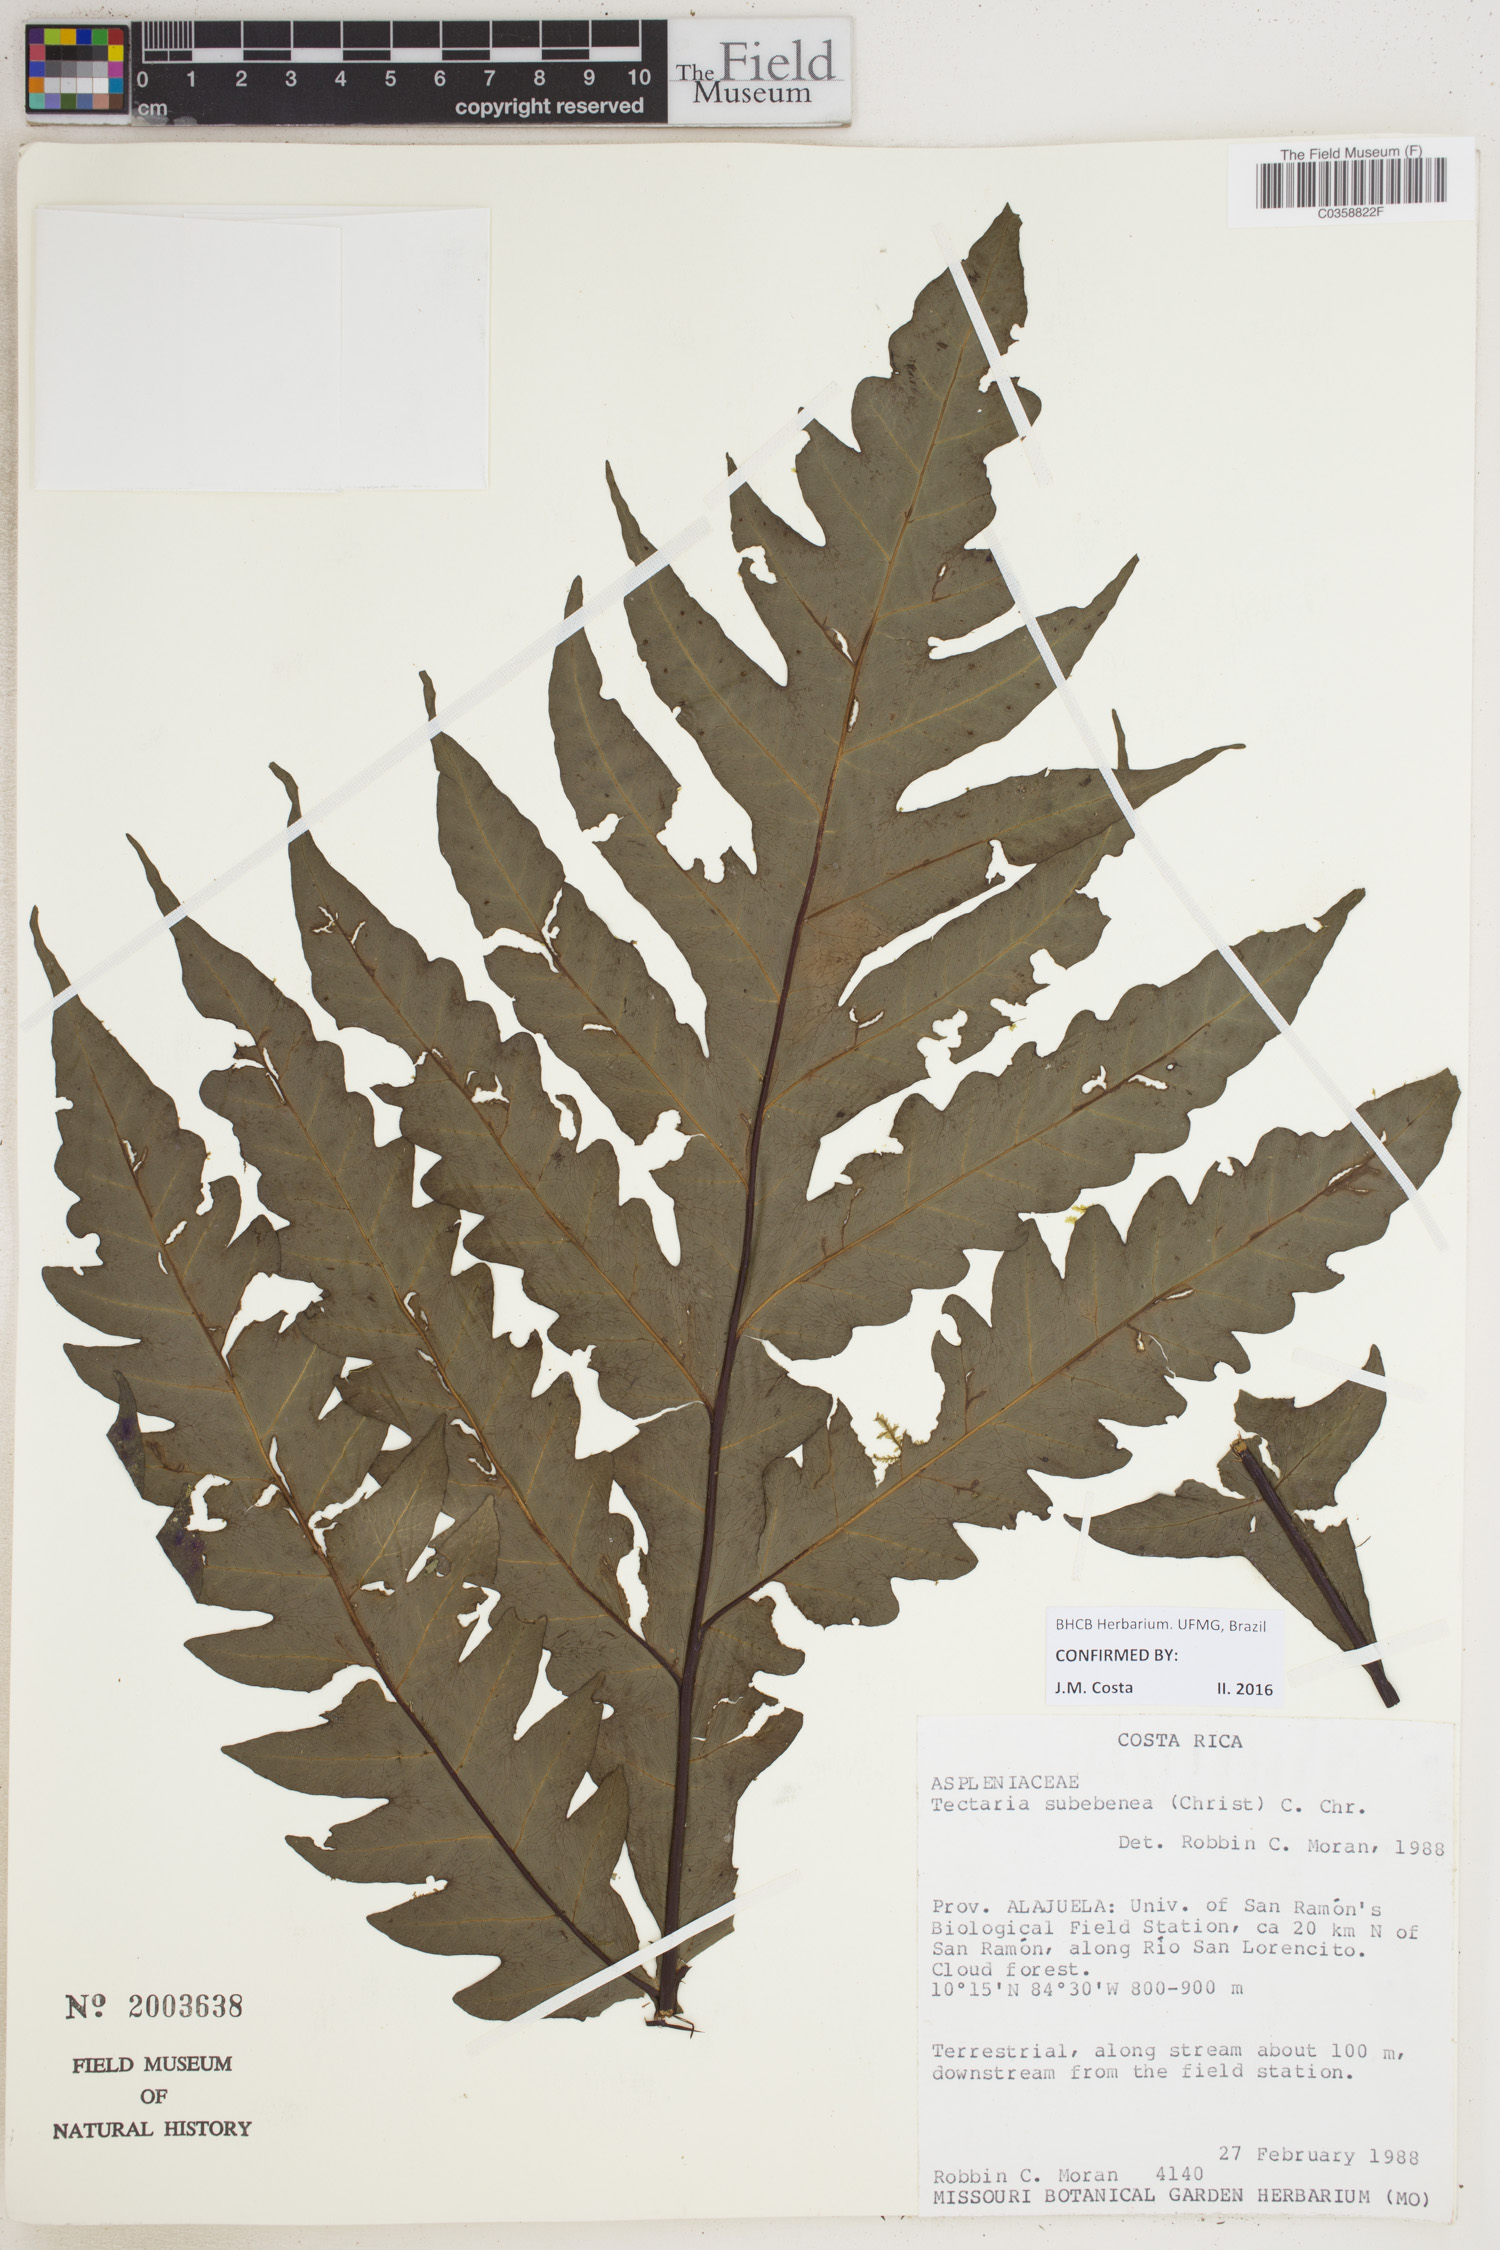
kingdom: Plantae
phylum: Tracheophyta
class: Polypodiopsida
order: Polypodiales
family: Tectariaceae
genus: Tectaria
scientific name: Tectaria subebenea
